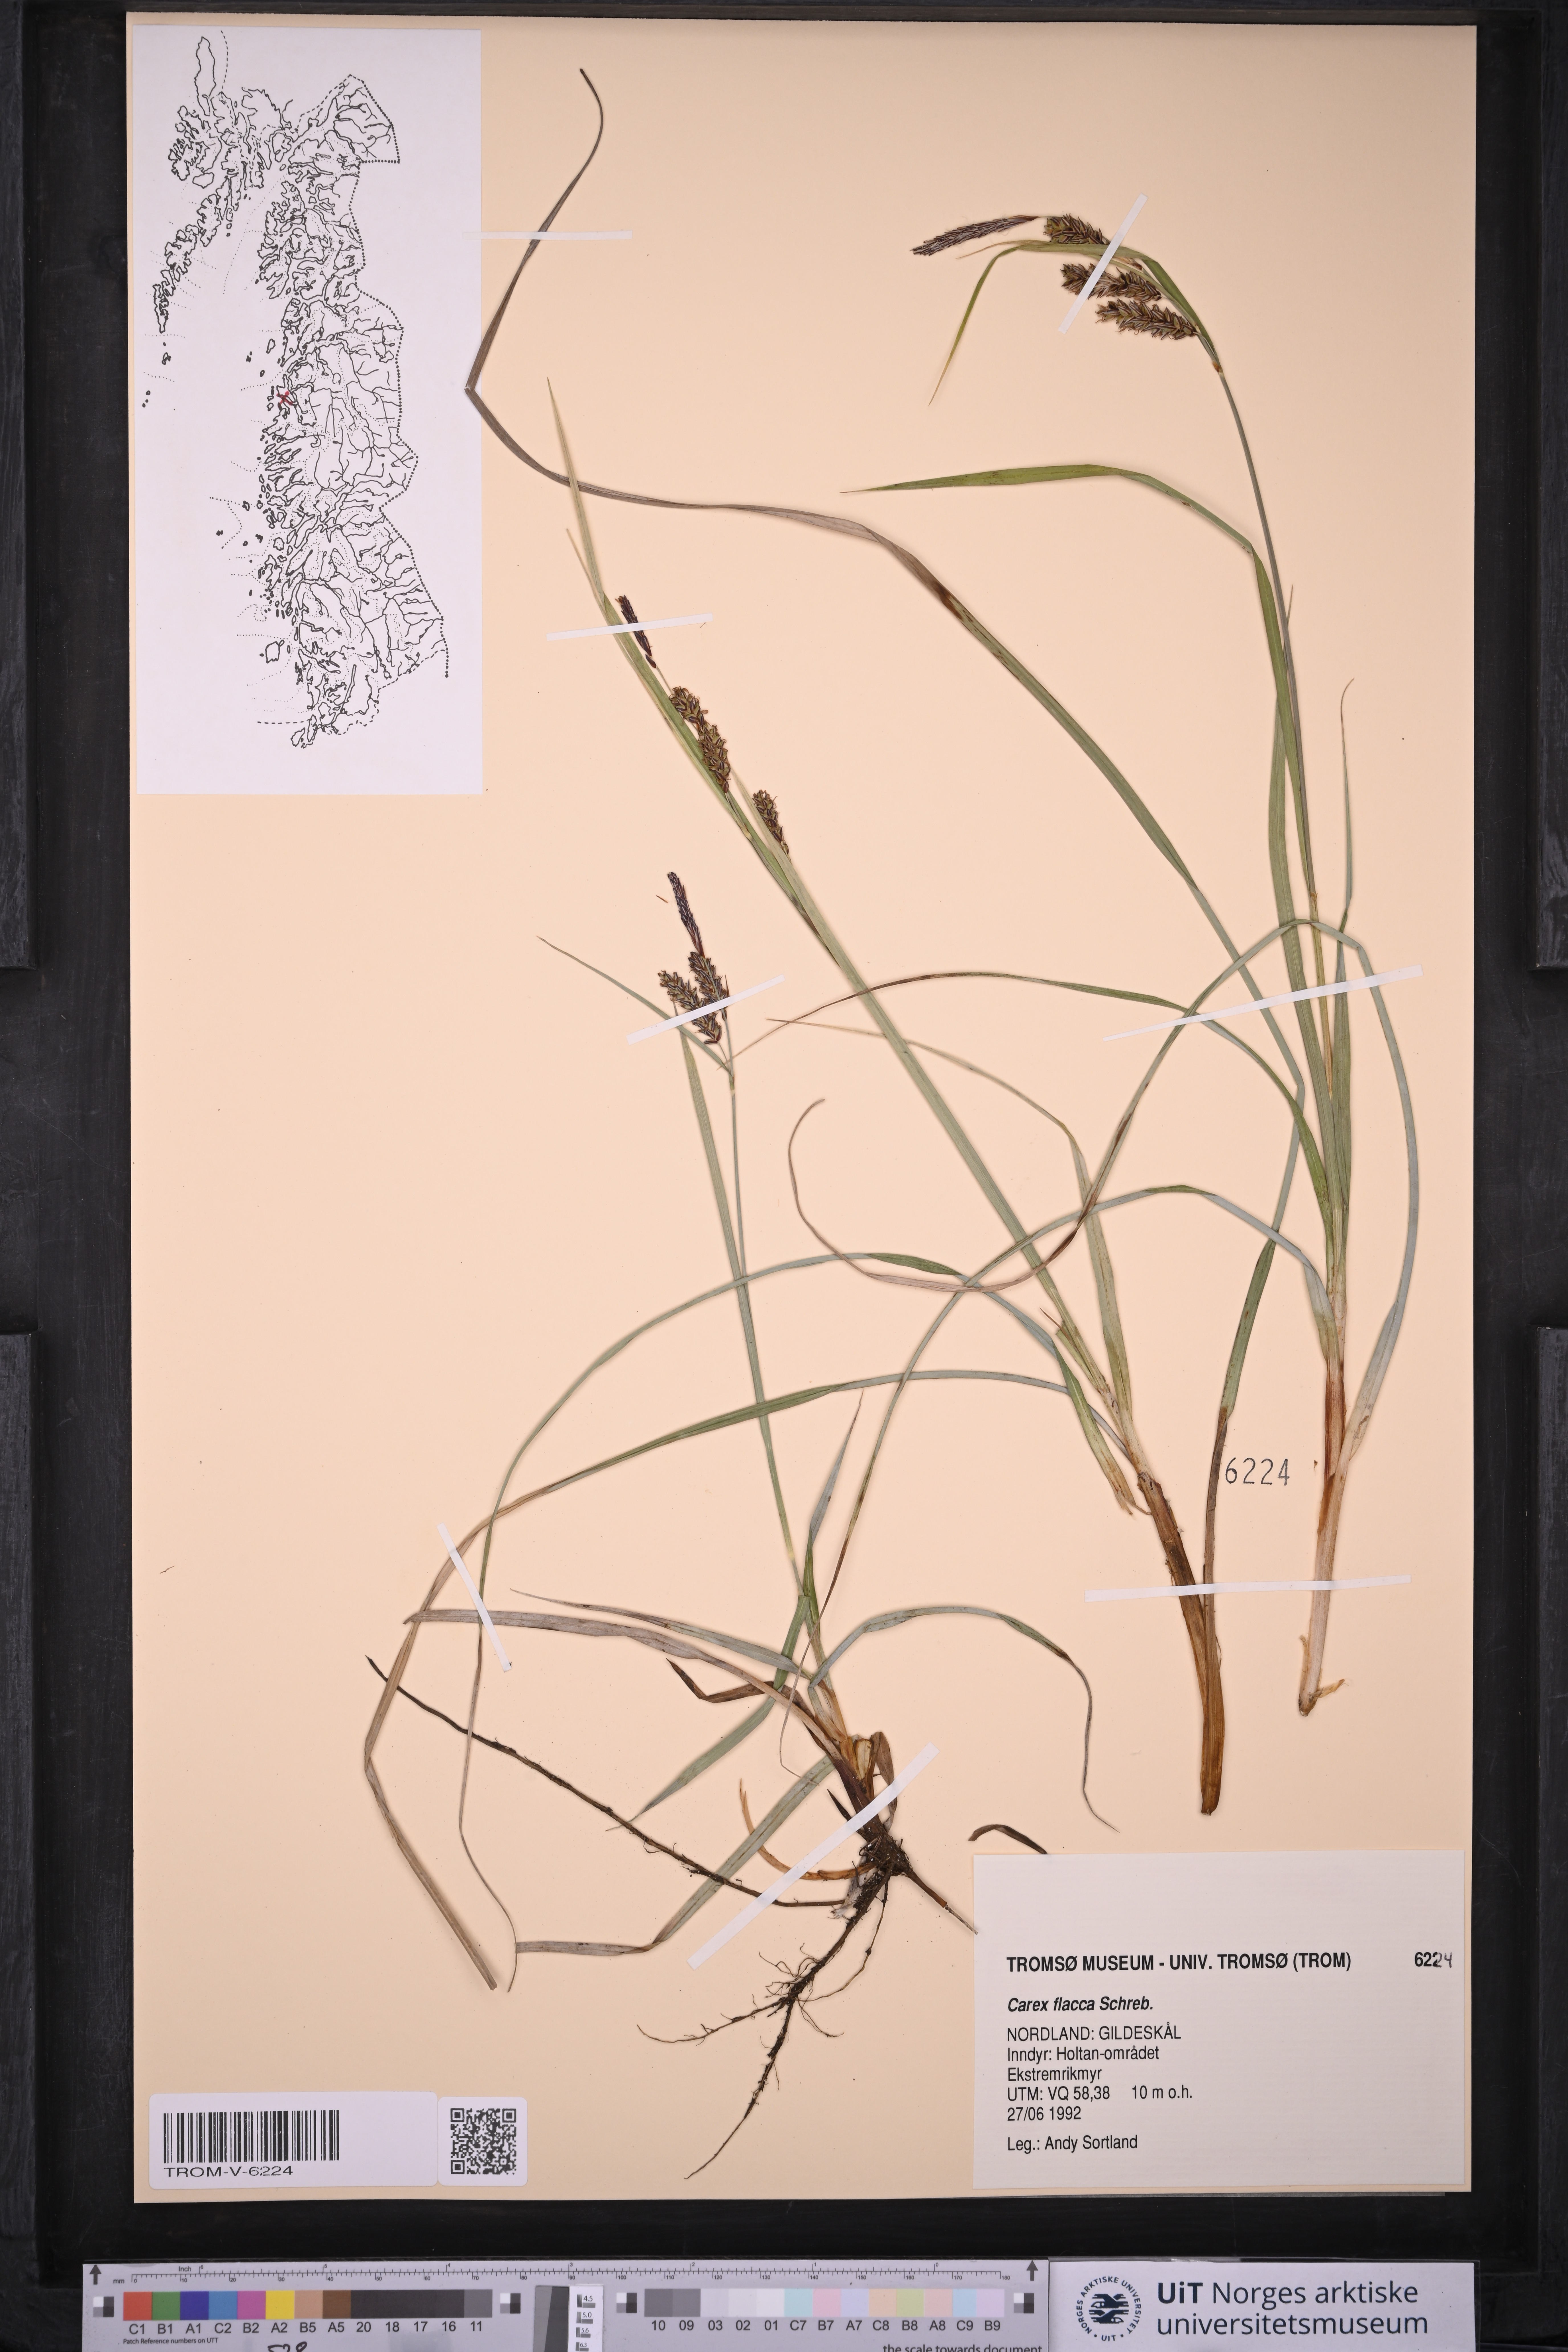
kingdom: Plantae
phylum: Tracheophyta
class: Liliopsida
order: Poales
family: Cyperaceae
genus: Carex
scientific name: Carex flacca
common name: Glaucous sedge
